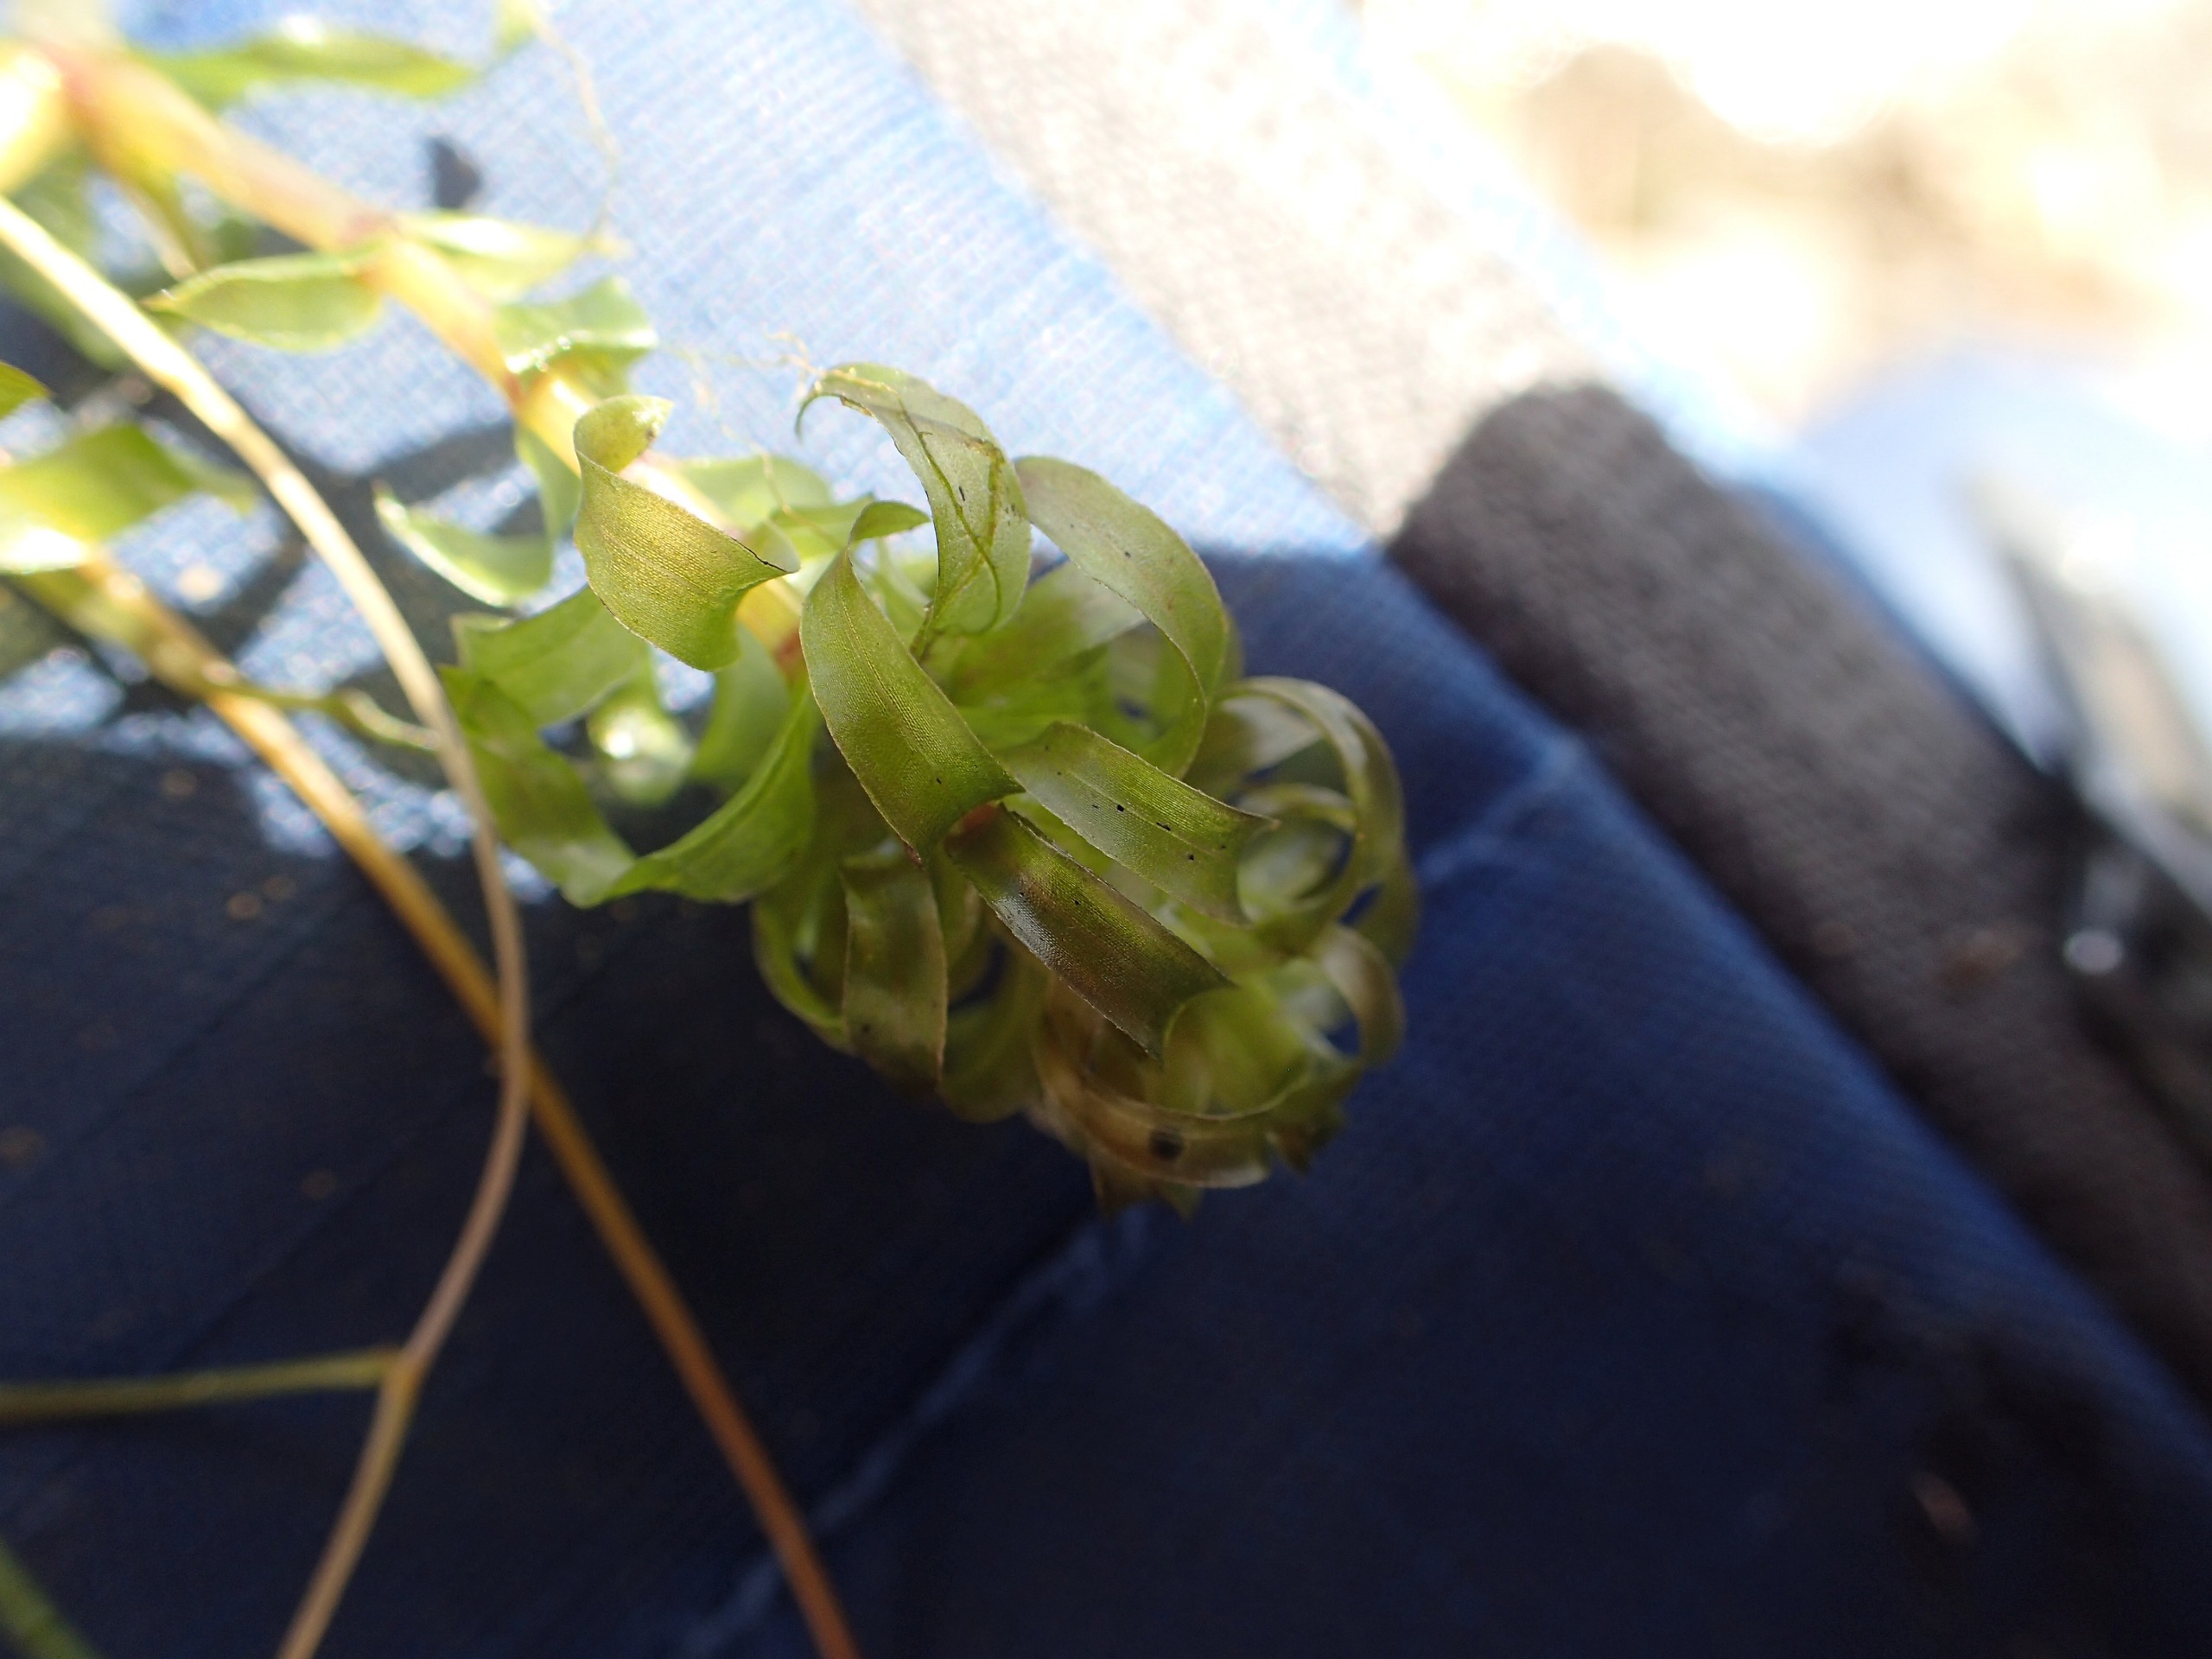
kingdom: Plantae
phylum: Tracheophyta
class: Liliopsida
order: Alismatales
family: Hydrocharitaceae
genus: Elodea
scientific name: Elodea nuttallii
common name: Smalbladet vandpest
